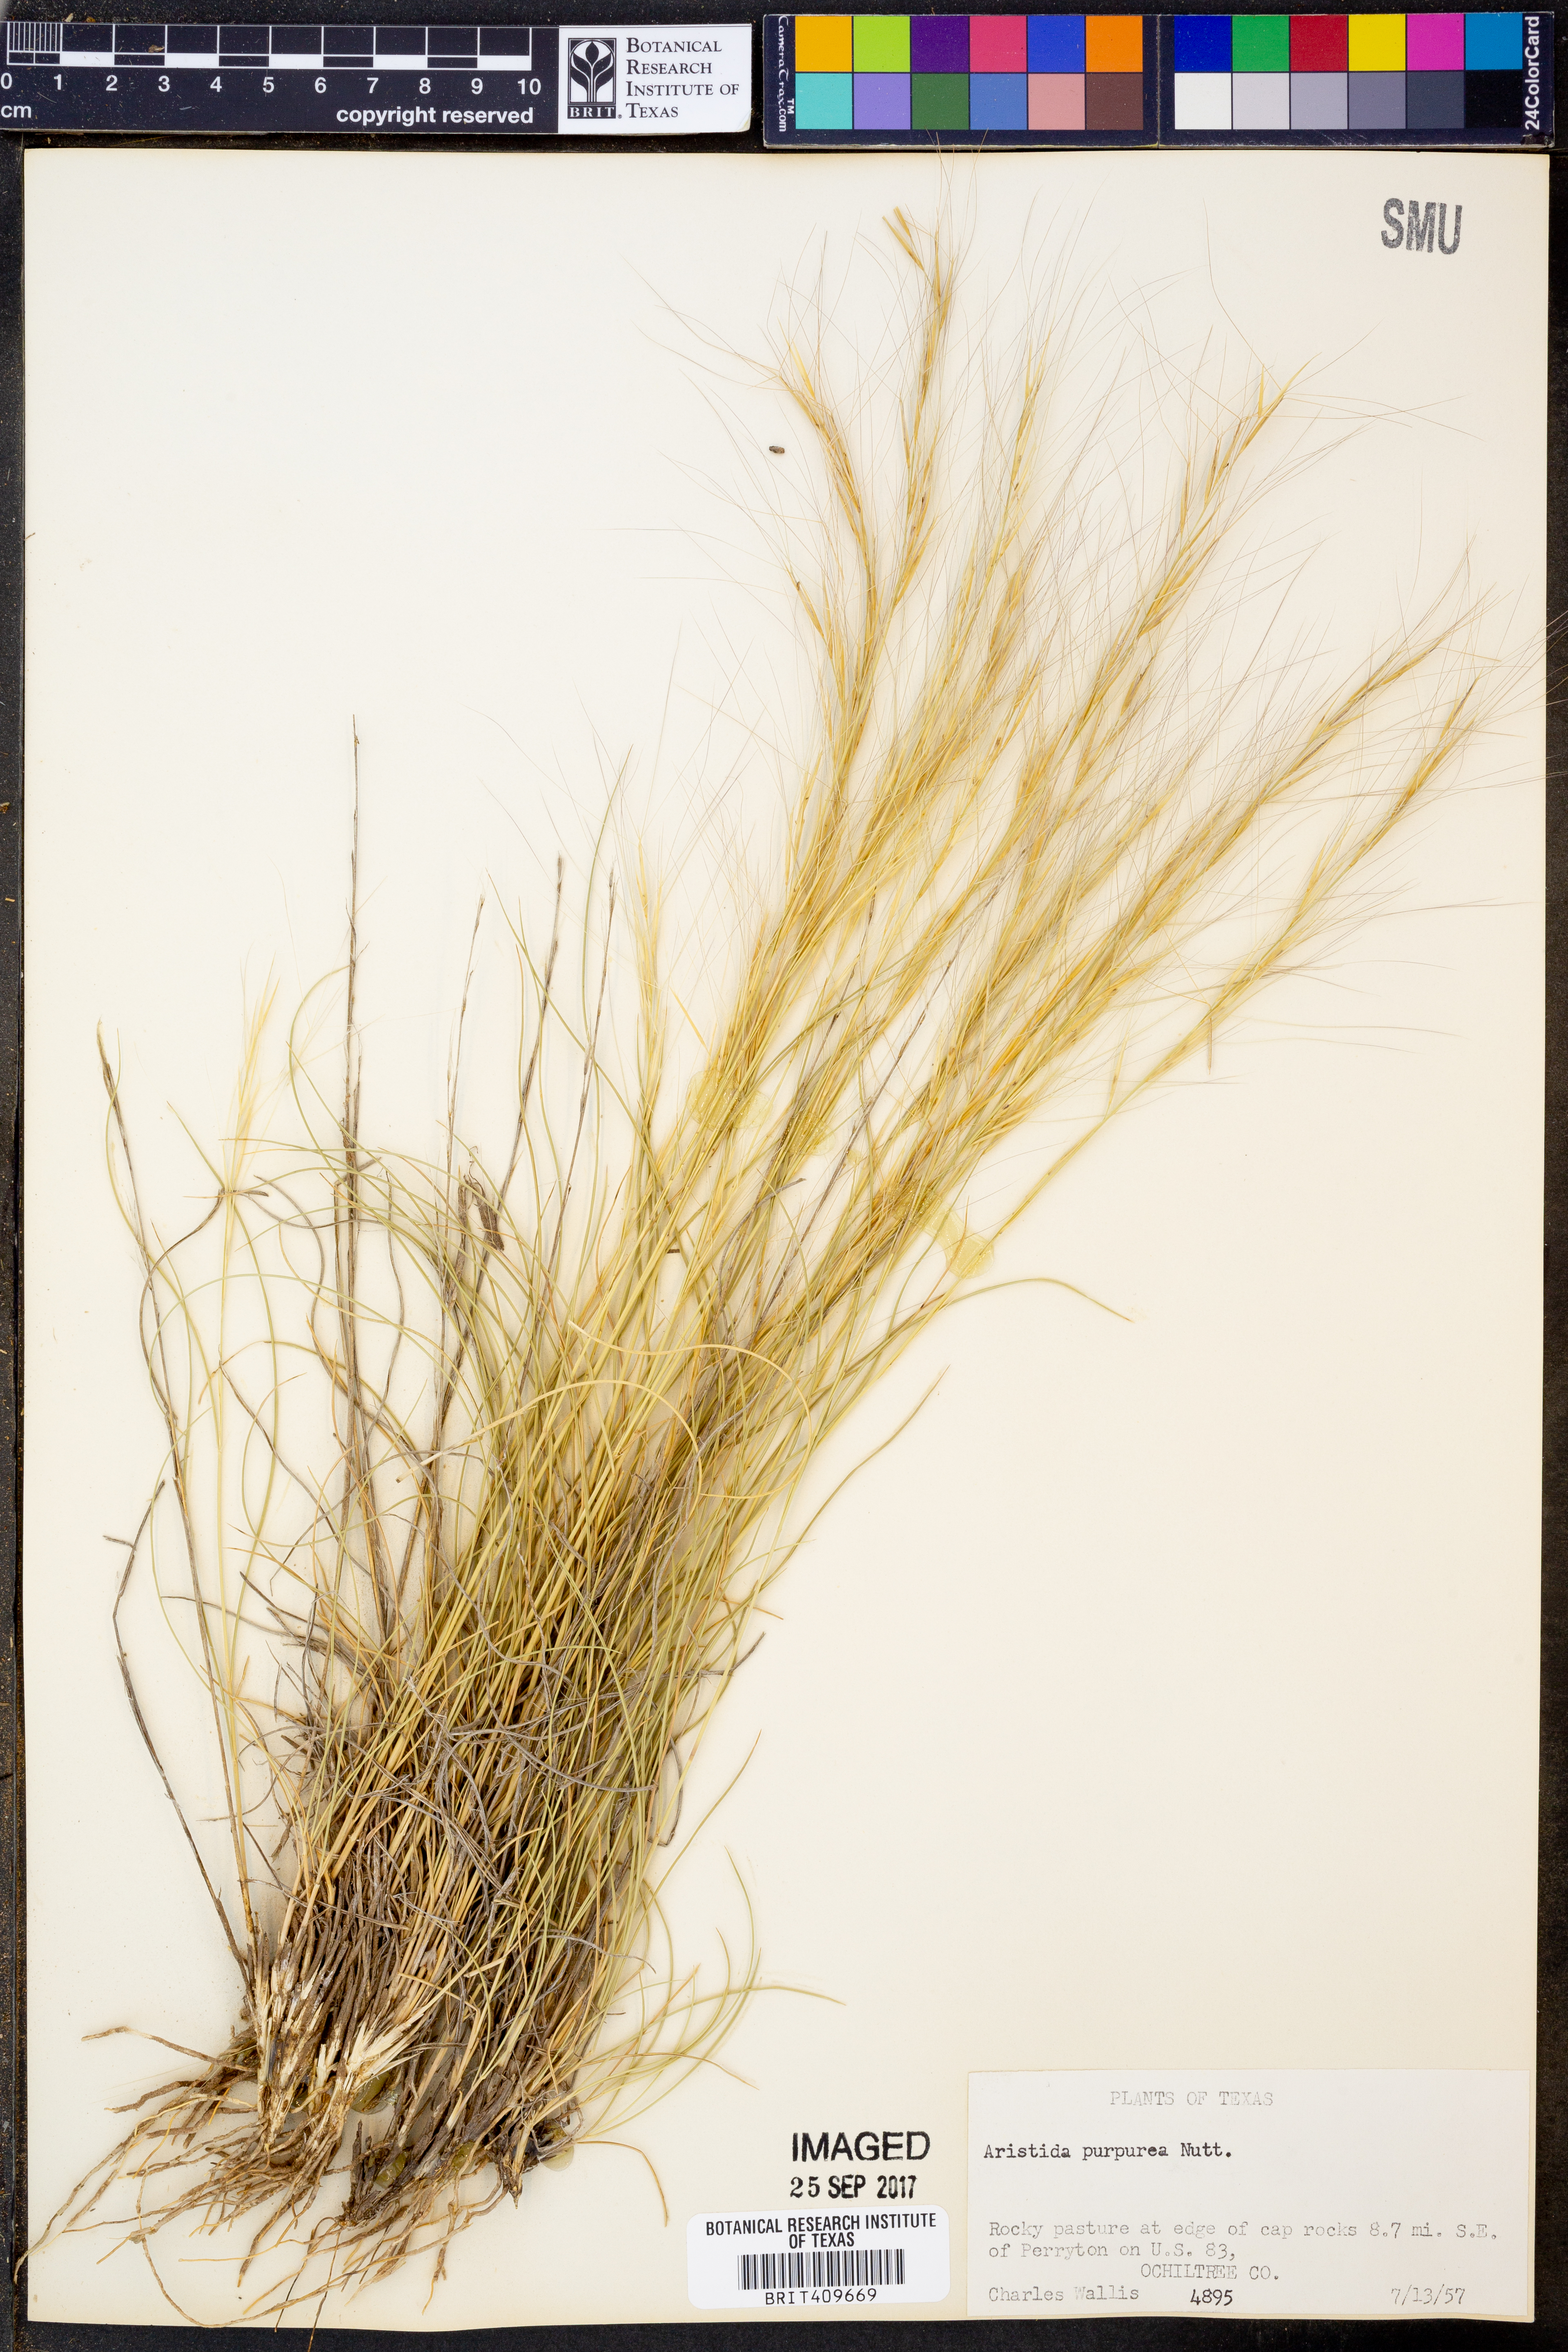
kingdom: Plantae
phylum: Tracheophyta
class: Liliopsida
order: Poales
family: Poaceae
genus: Aristida
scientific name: Aristida purpurea
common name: Purple threeawn
